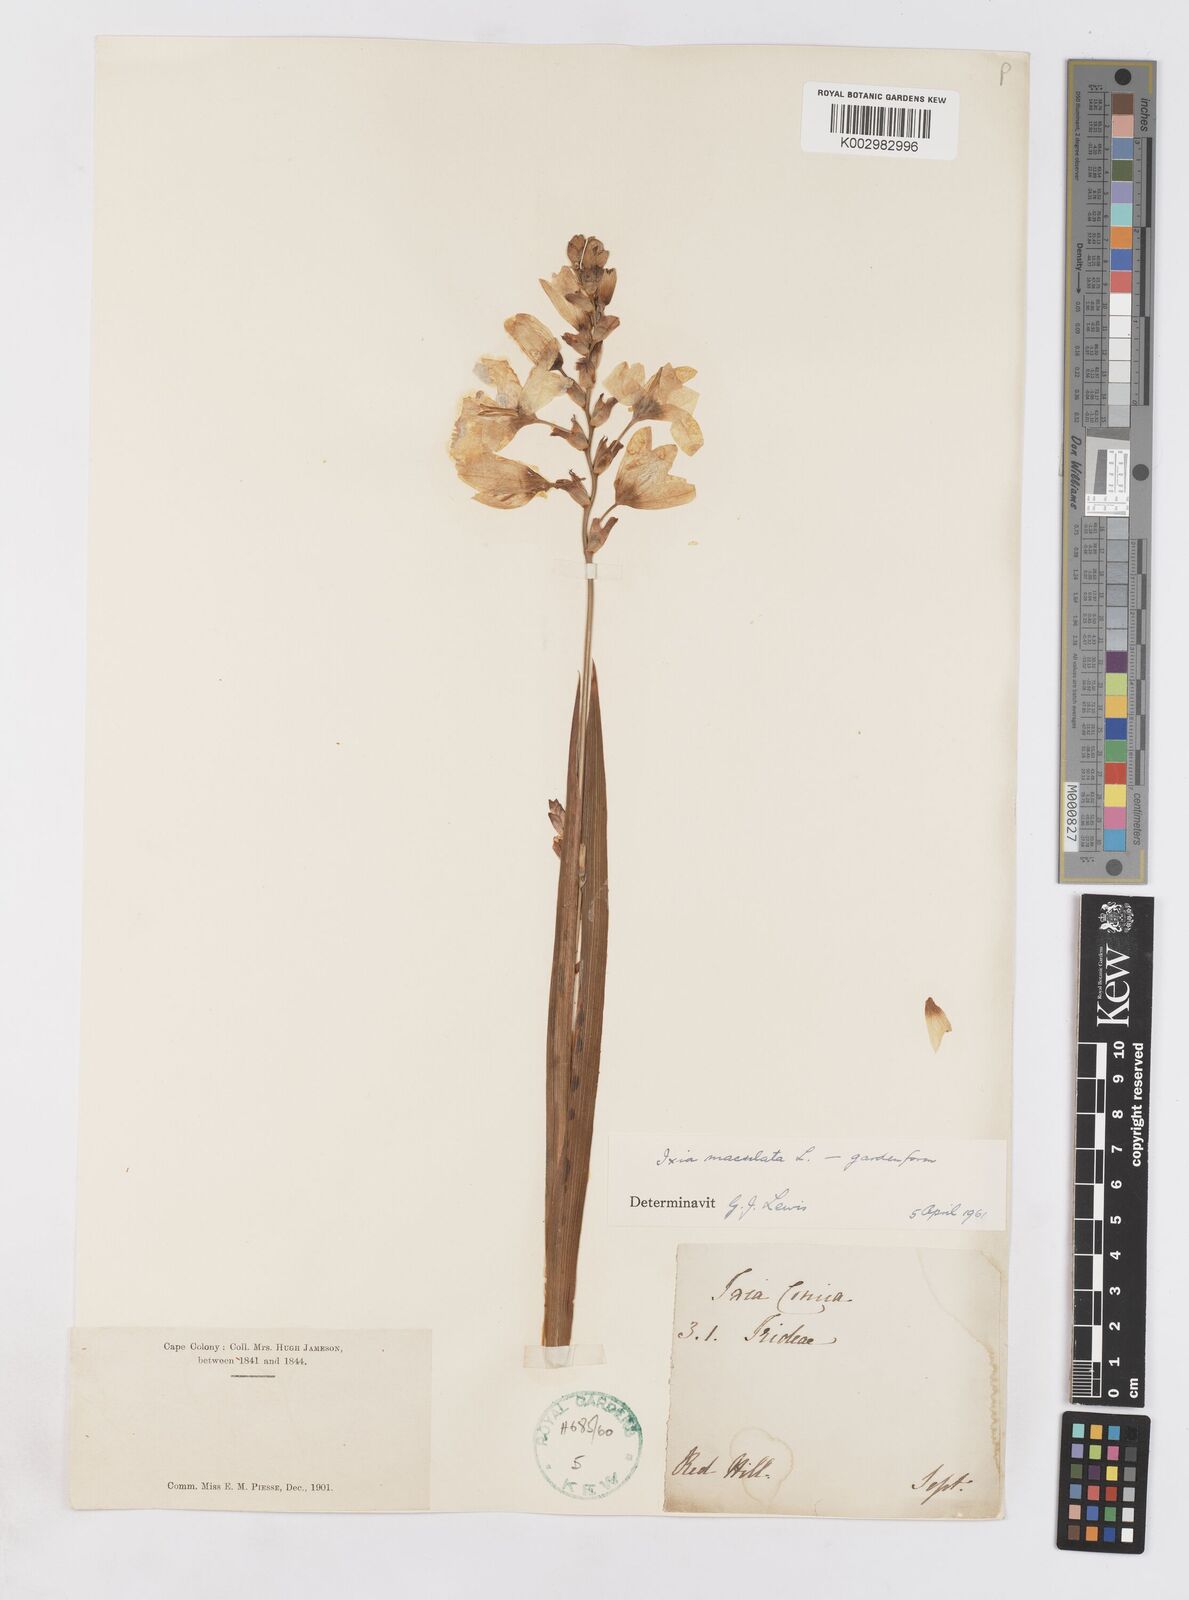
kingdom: Plantae
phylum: Tracheophyta
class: Liliopsida
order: Asparagales
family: Iridaceae
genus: Ixia
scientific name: Ixia maculata
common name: Spotted african cornlily
